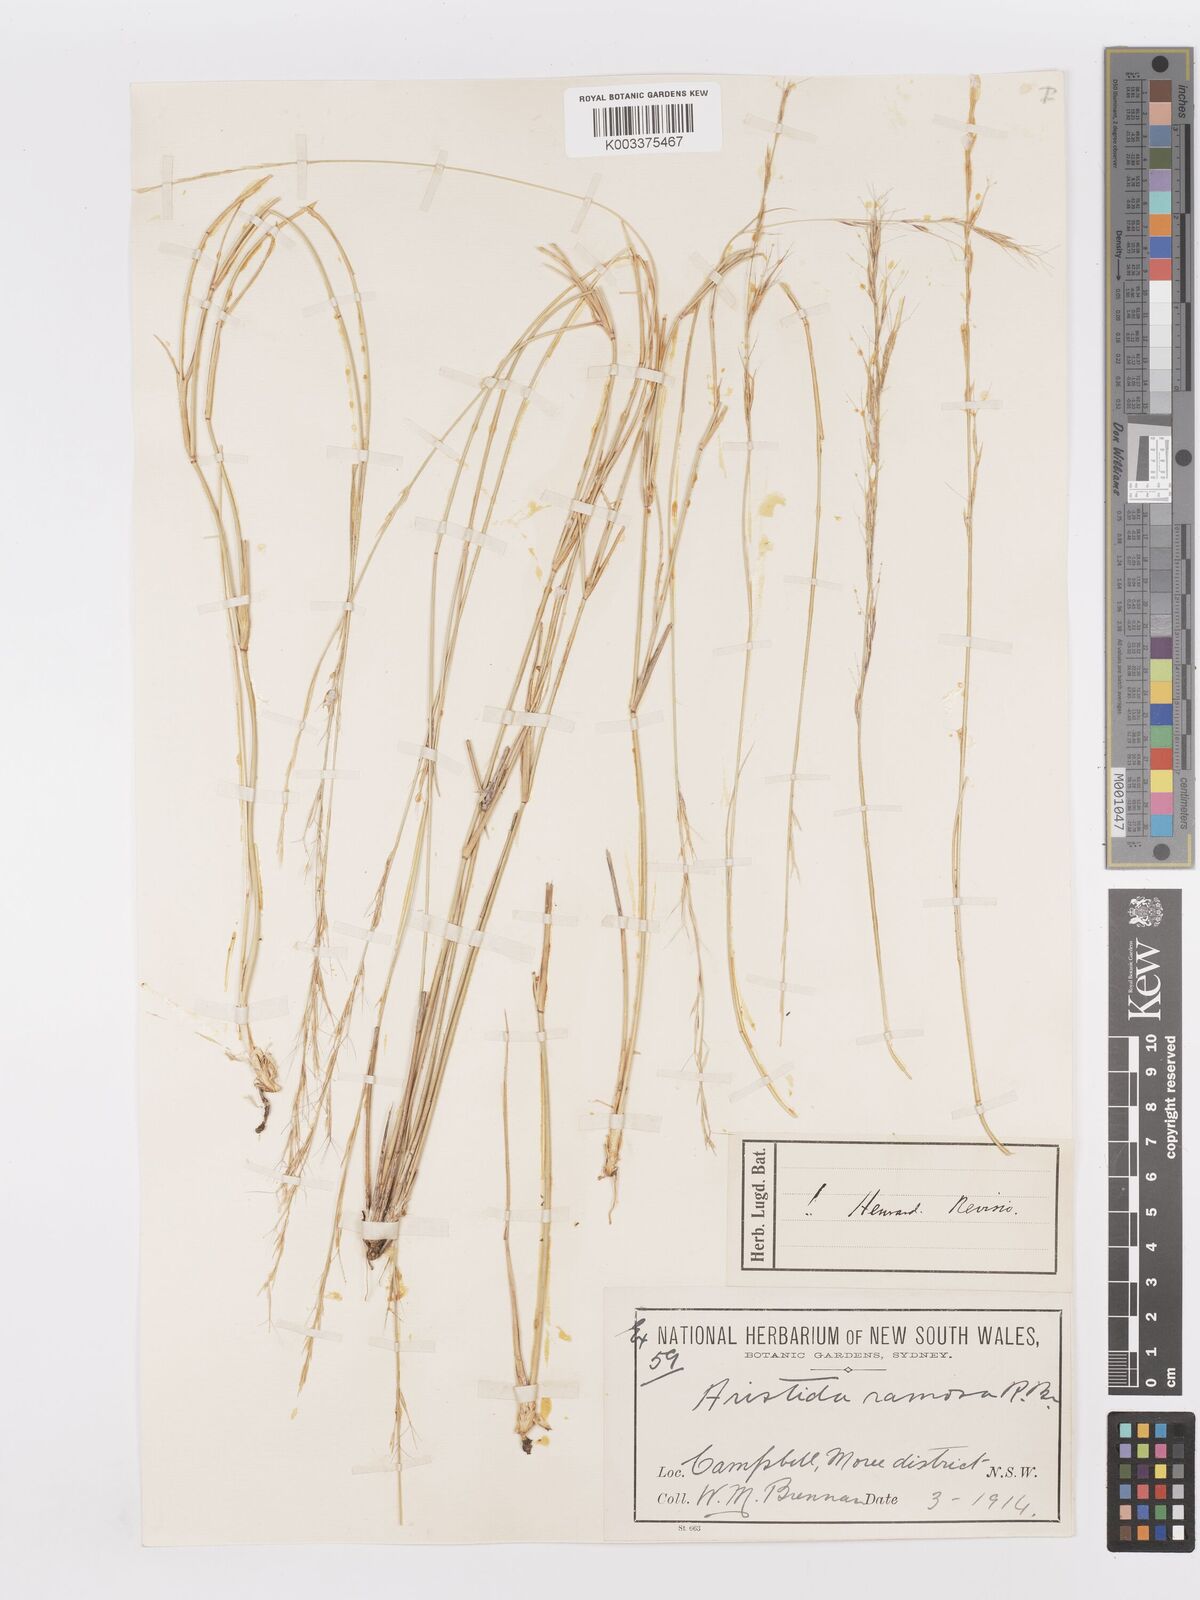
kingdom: Plantae
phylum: Tracheophyta
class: Liliopsida
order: Poales
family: Poaceae
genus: Aristida
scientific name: Aristida ramosa
